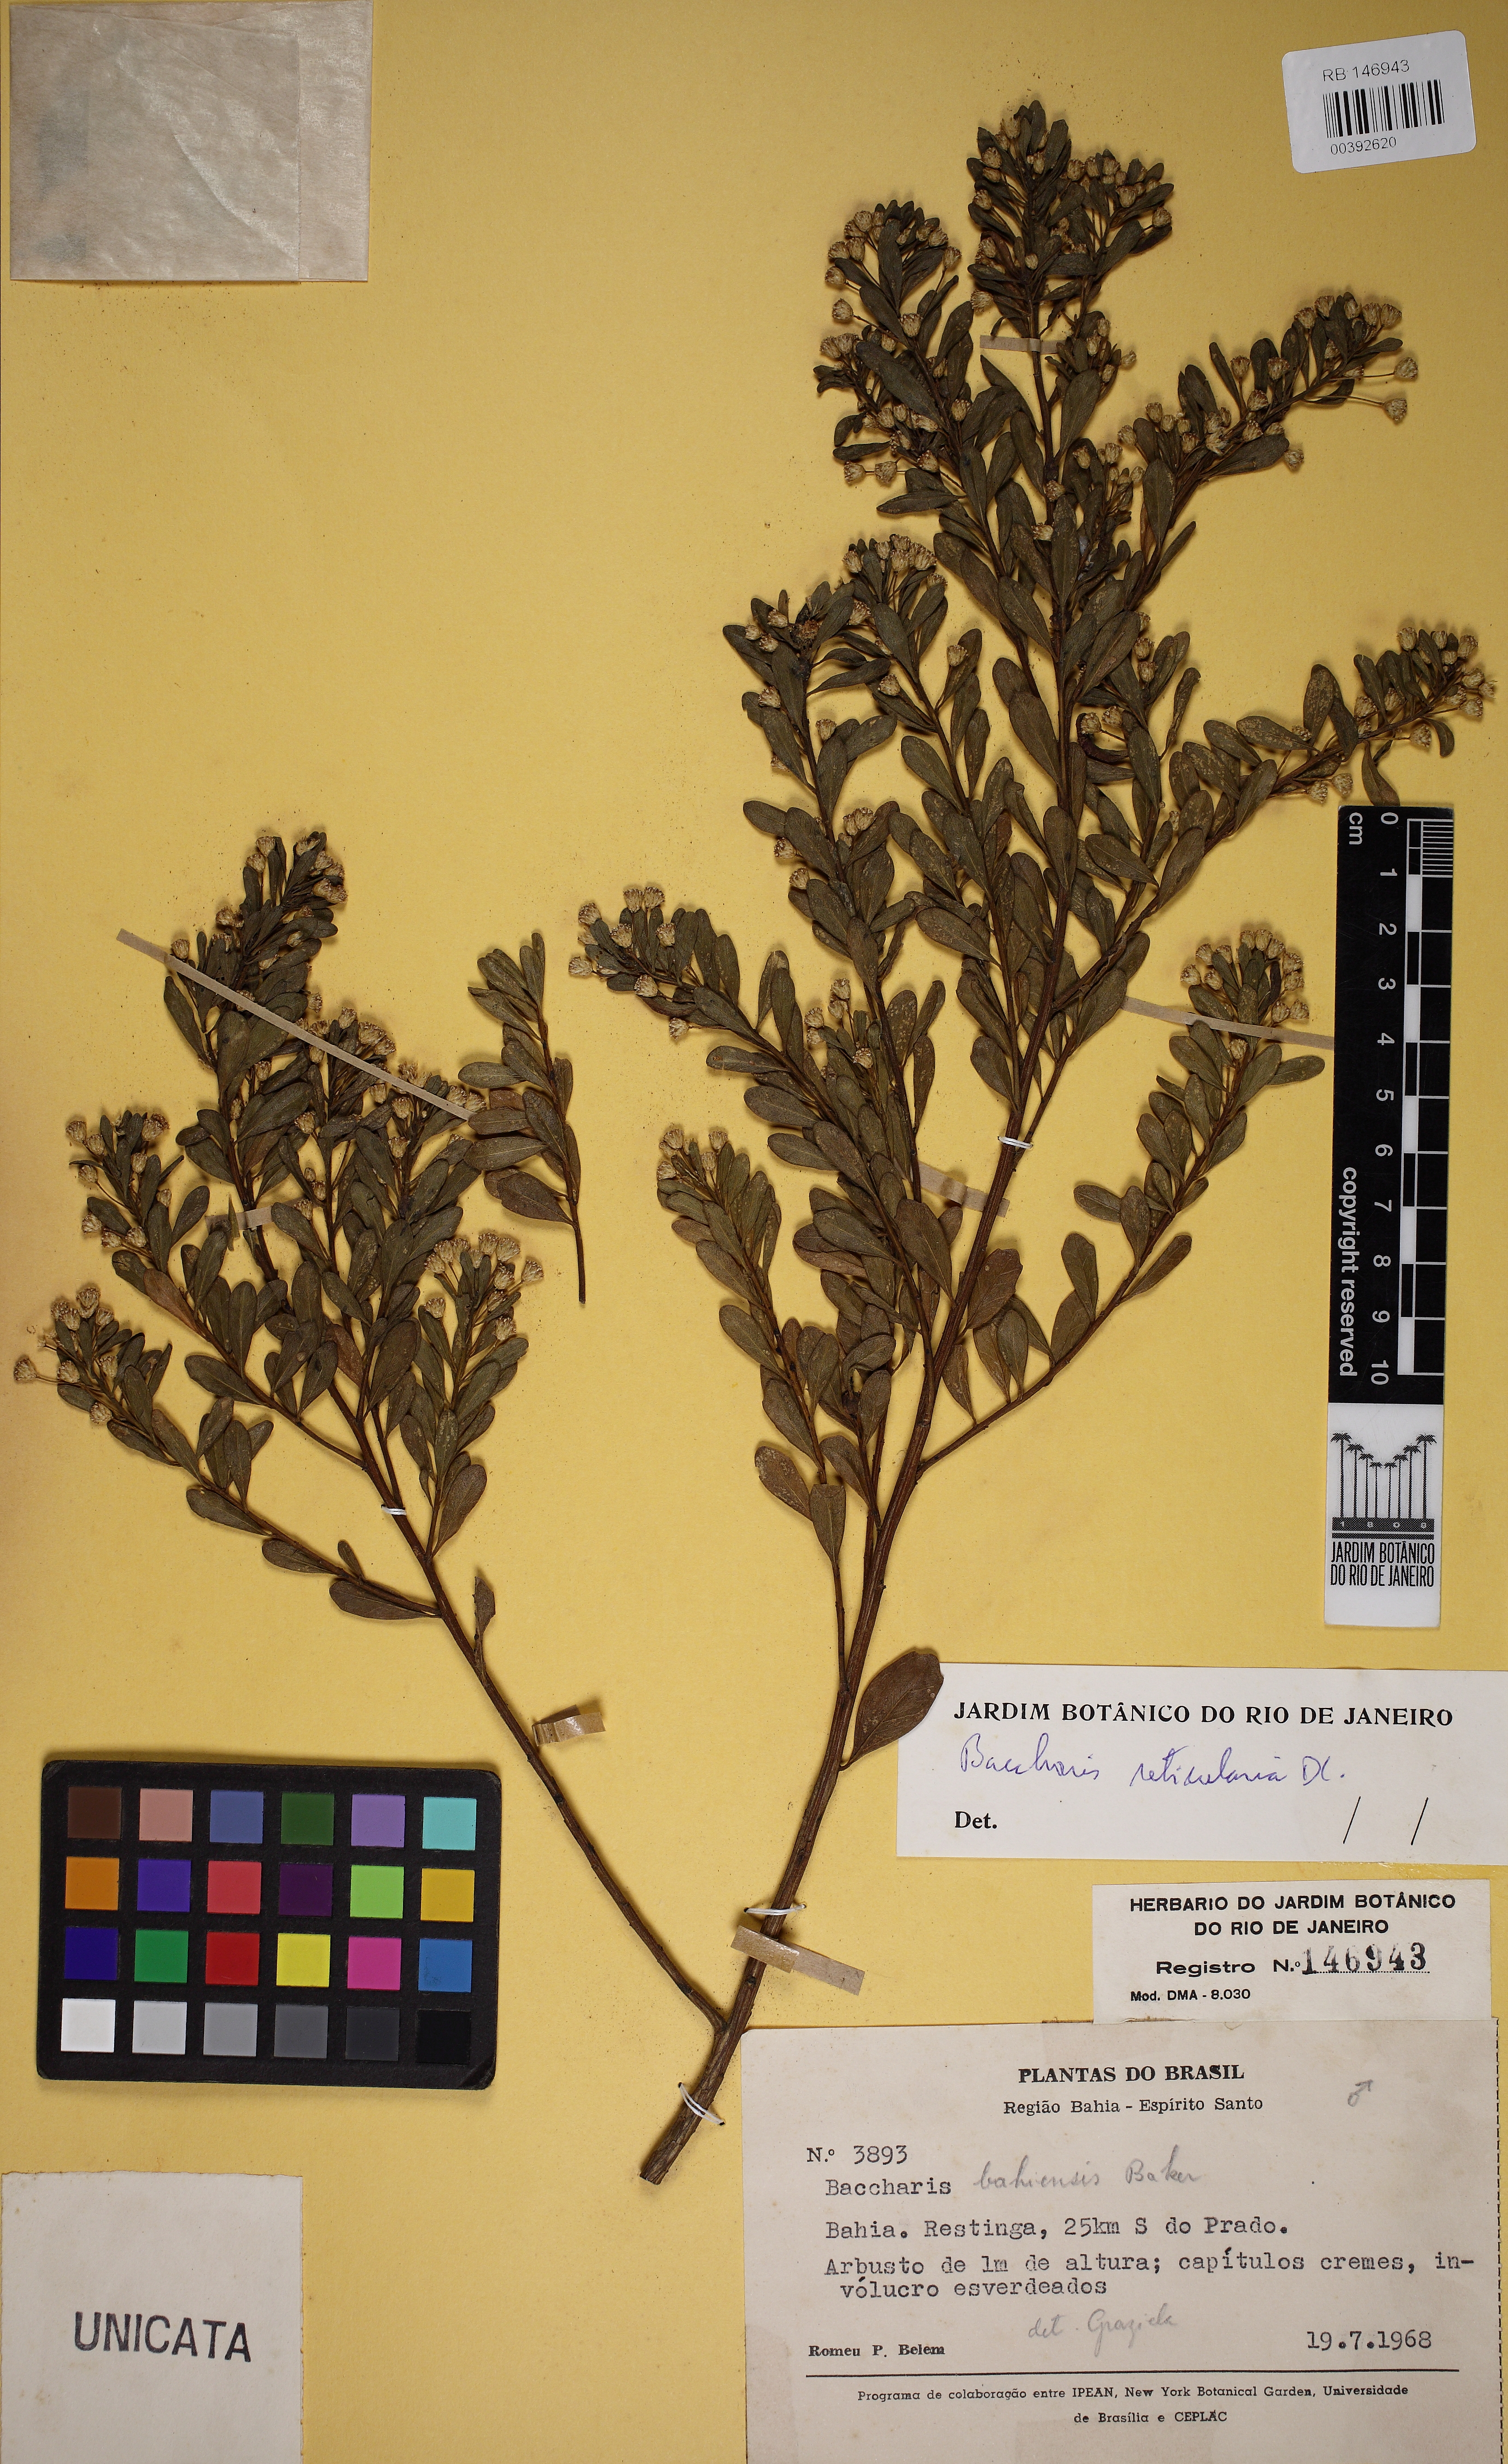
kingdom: Plantae
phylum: Tracheophyta
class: Magnoliopsida
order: Asterales
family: Asteraceae
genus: Baccharis
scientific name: Baccharis reticularia
